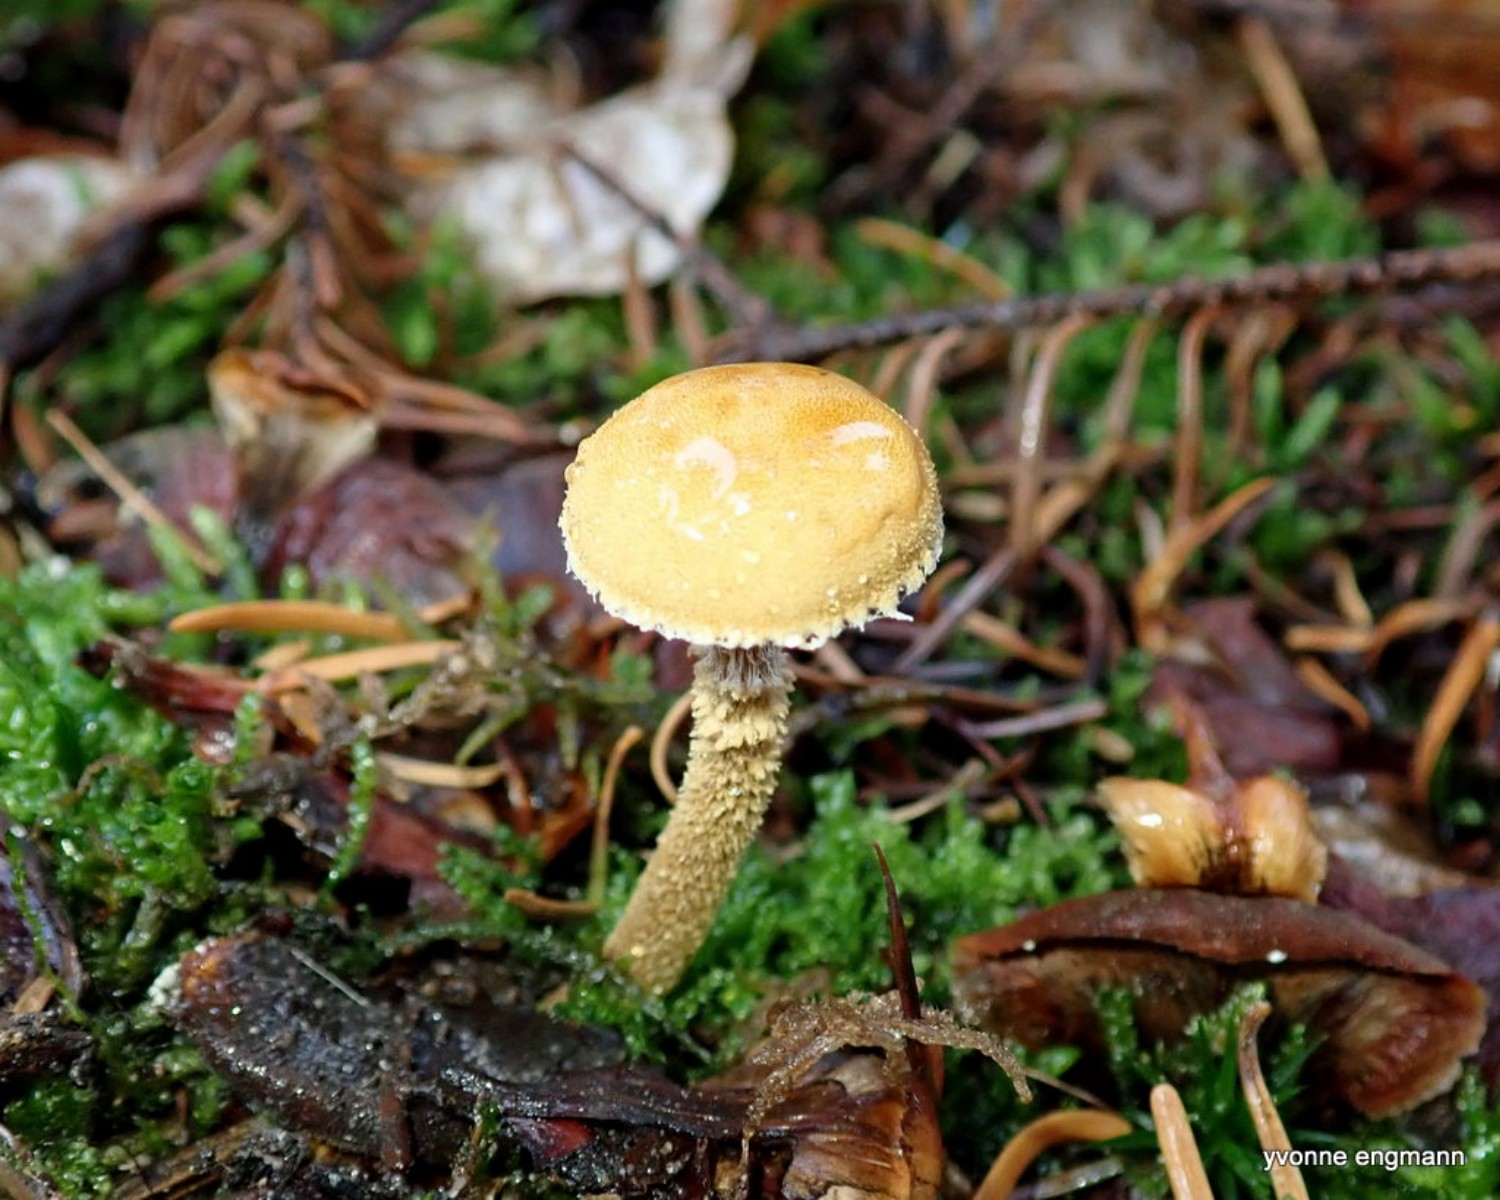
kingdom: Fungi
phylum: Basidiomycota
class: Agaricomycetes
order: Agaricales
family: Tricholomataceae
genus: Cystoderma
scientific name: Cystoderma amianthinum
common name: okkergul grynhat
